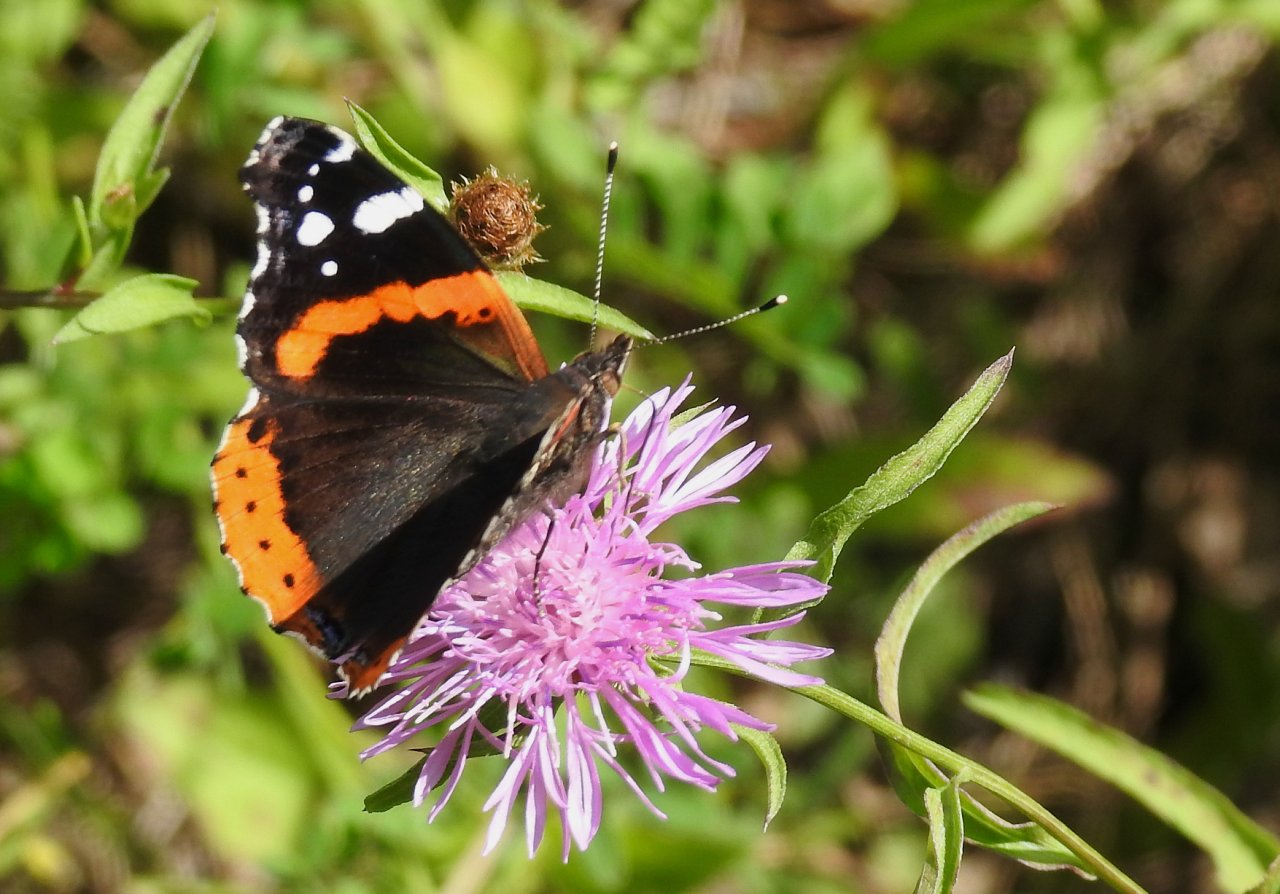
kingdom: Animalia
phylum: Arthropoda
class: Insecta
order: Lepidoptera
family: Nymphalidae
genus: Vanessa
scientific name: Vanessa atalanta
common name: Red Admiral
